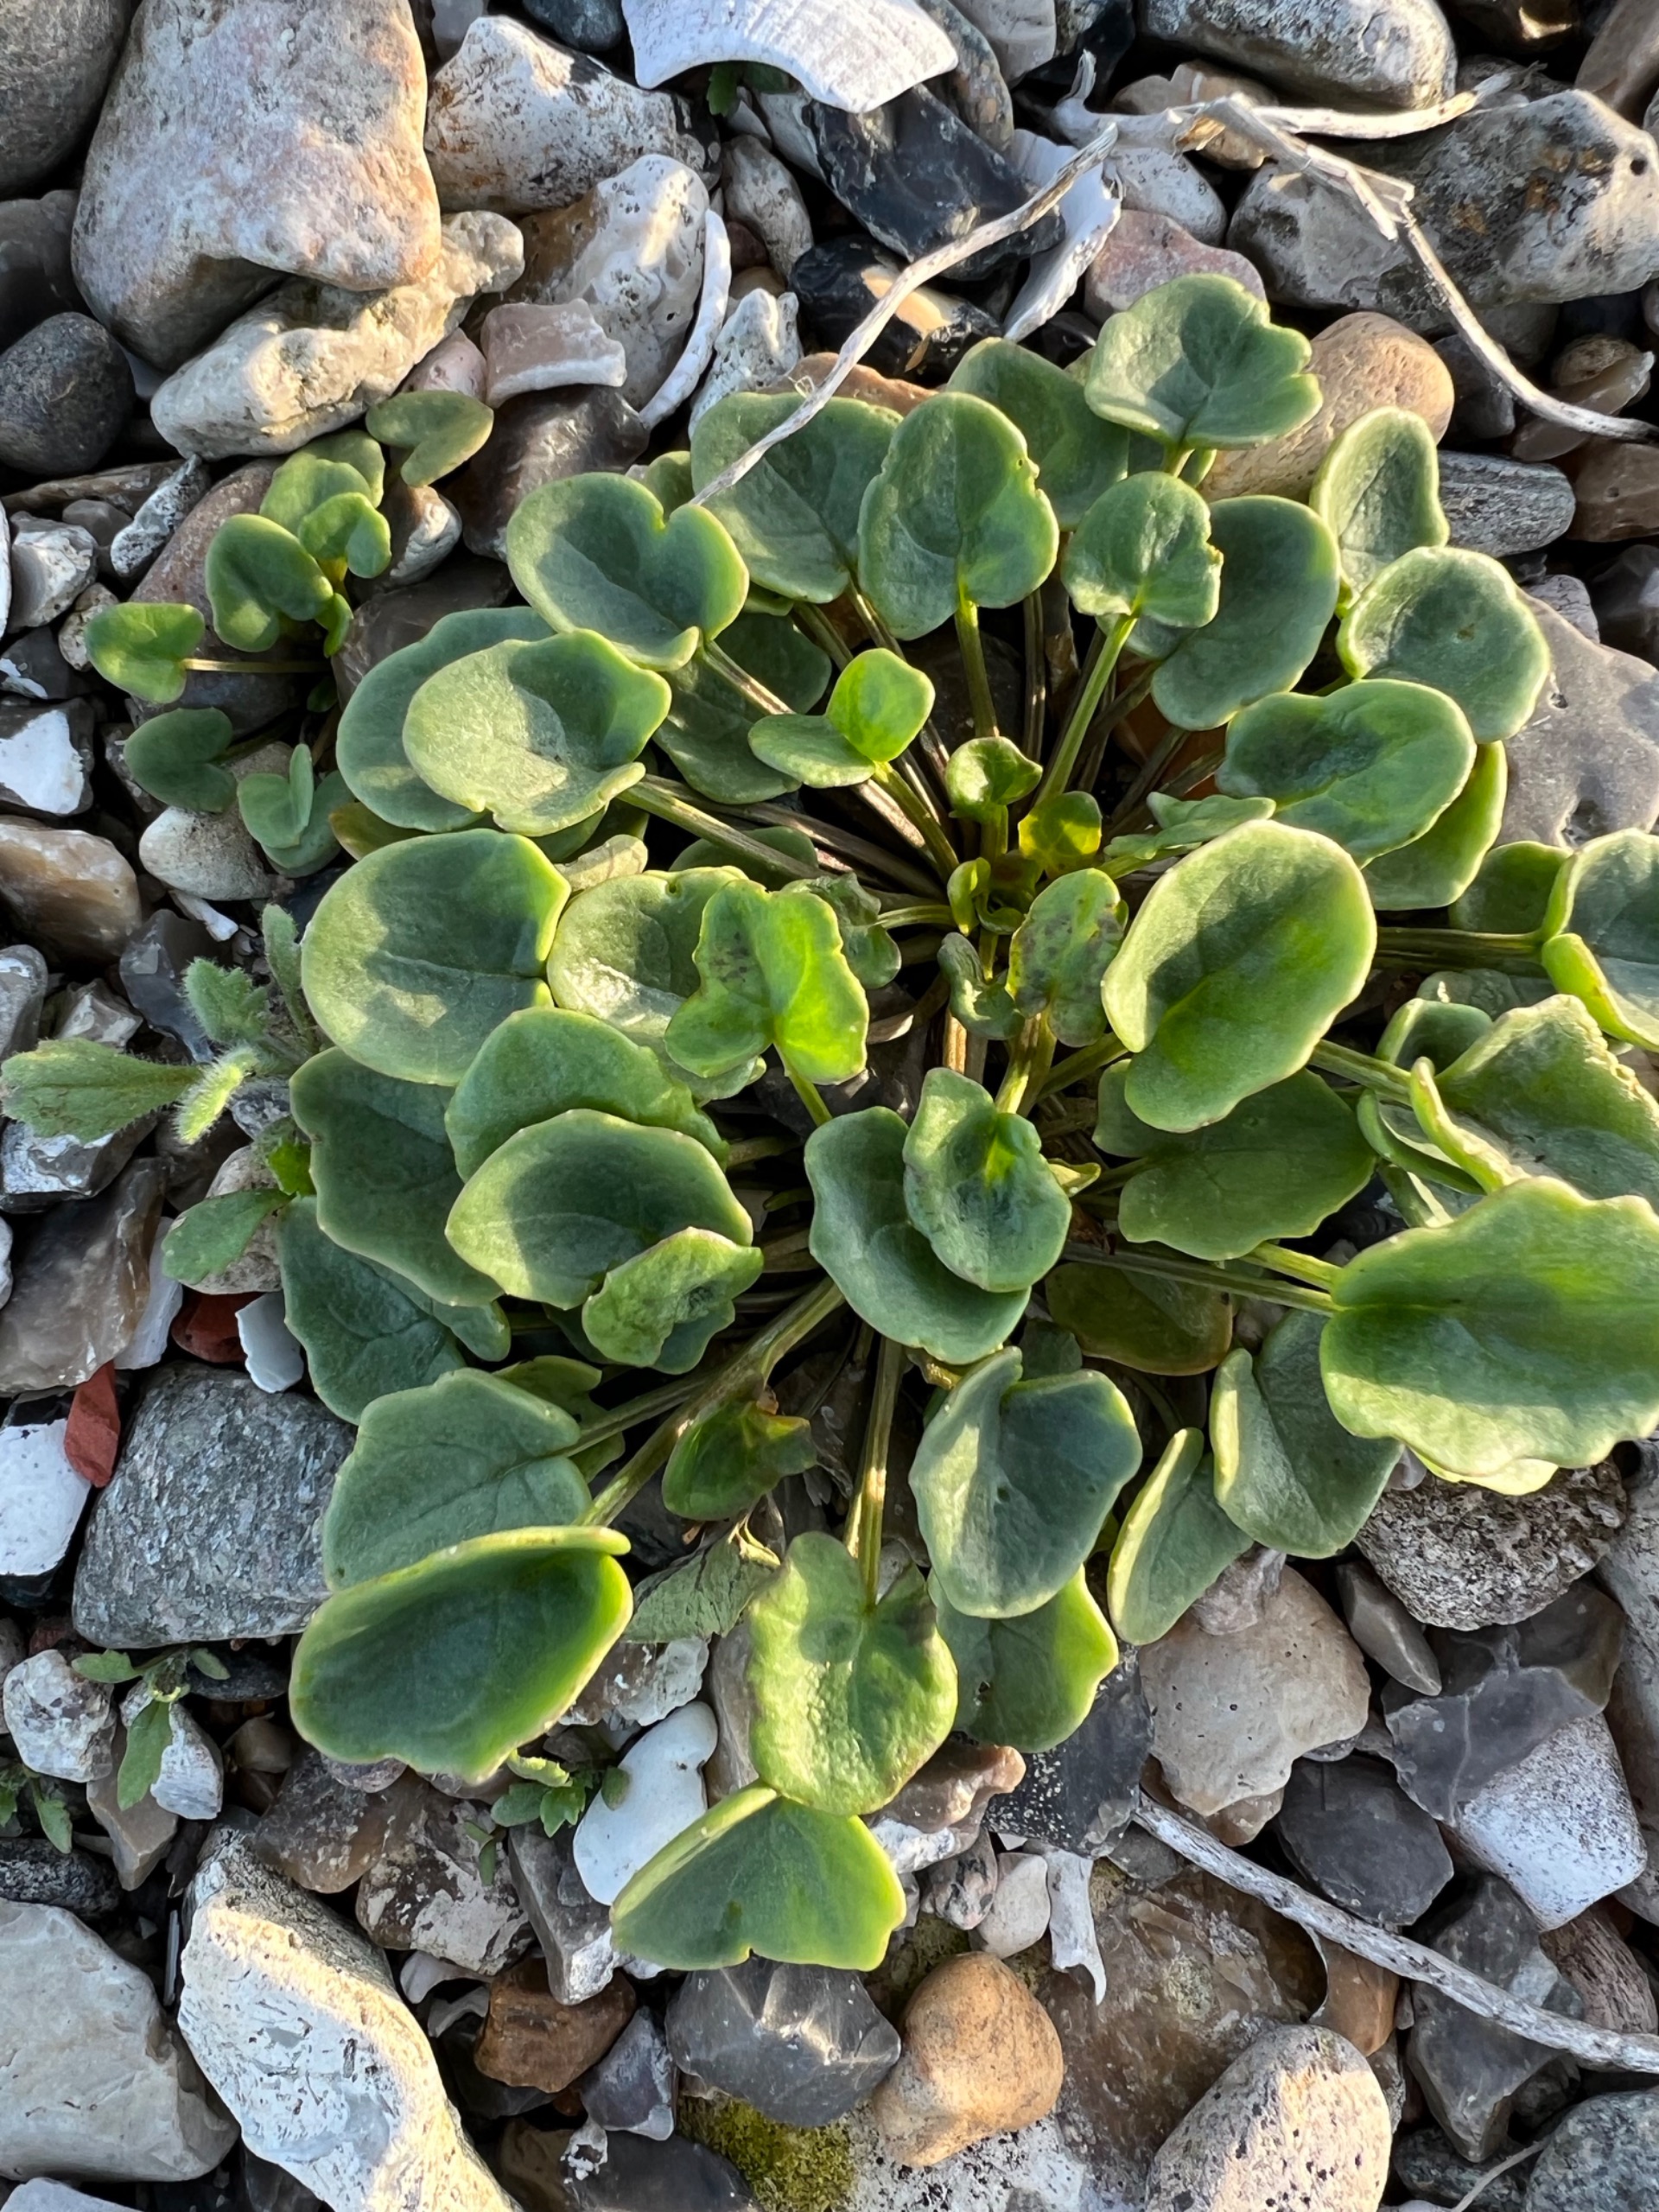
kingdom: Plantae
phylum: Tracheophyta
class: Magnoliopsida
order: Brassicales
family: Brassicaceae
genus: Cochlearia
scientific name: Cochlearia officinalis
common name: Læge-kokleare (underart)
